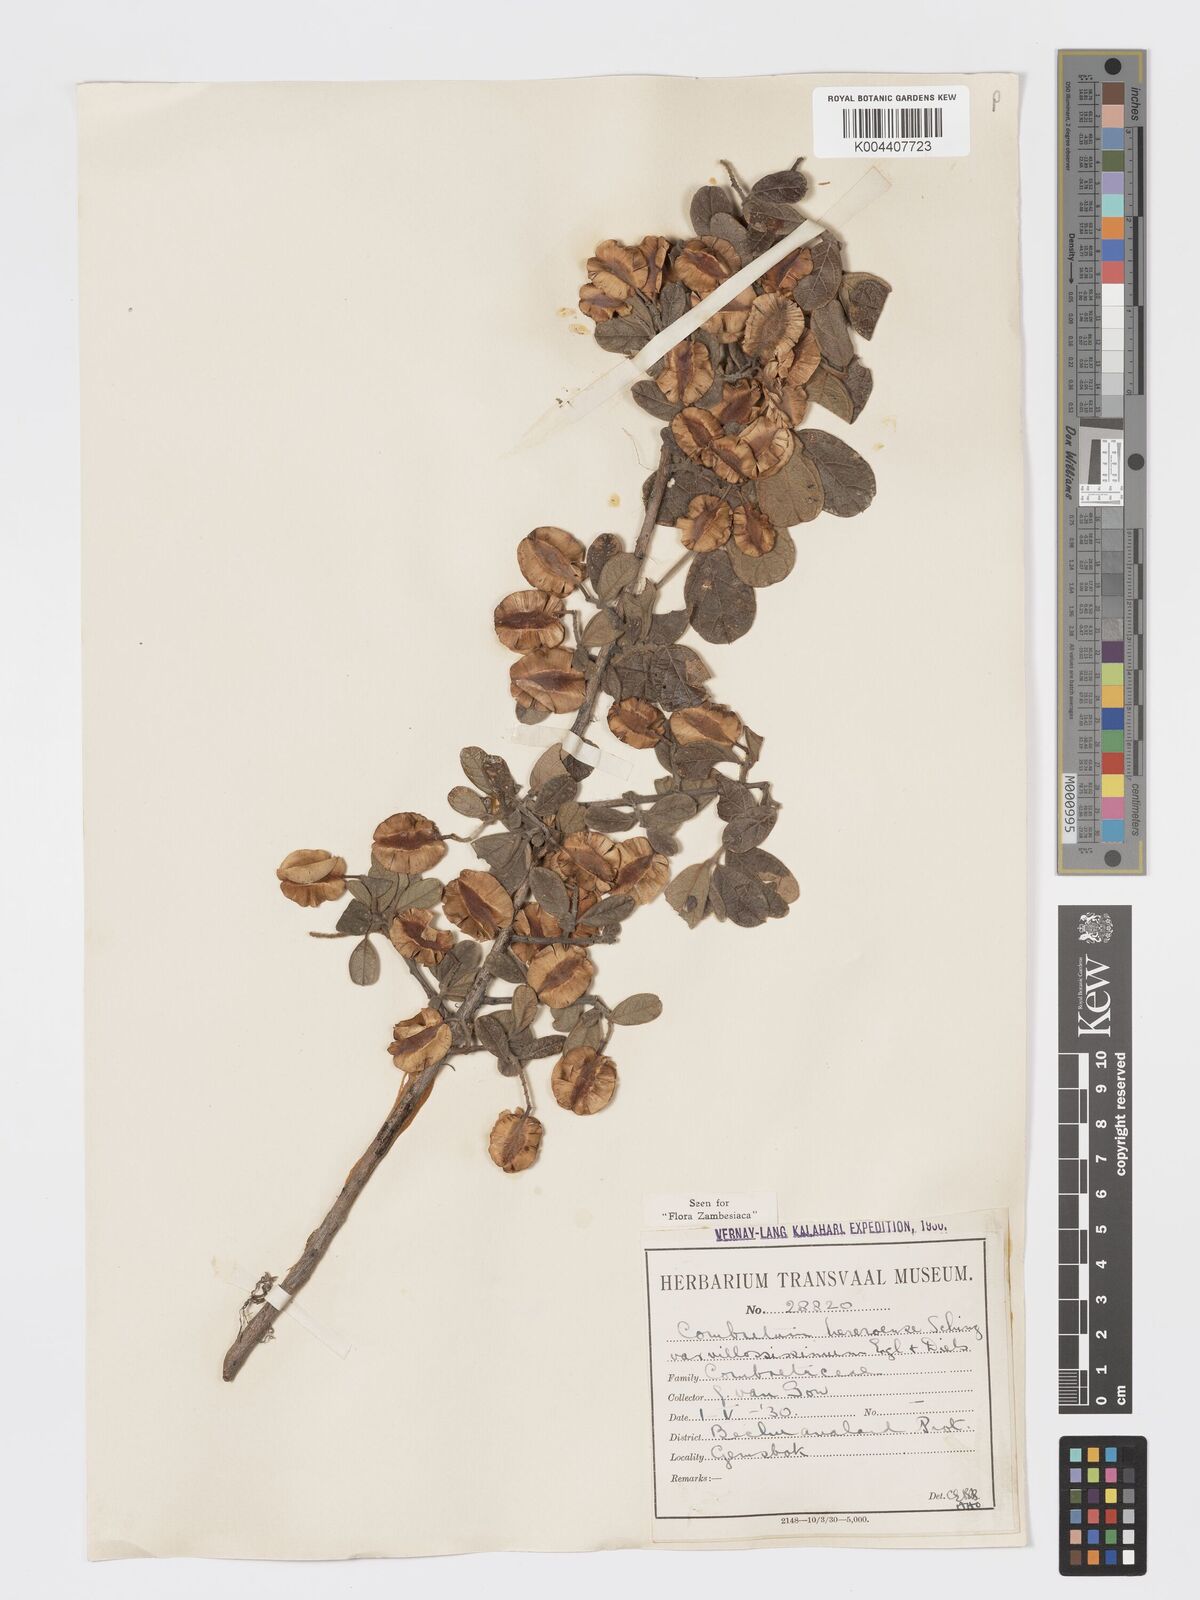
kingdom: Plantae
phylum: Tracheophyta
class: Magnoliopsida
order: Myrtales
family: Combretaceae
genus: Combretum
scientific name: Combretum hereroense
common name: Russet bushwillow
